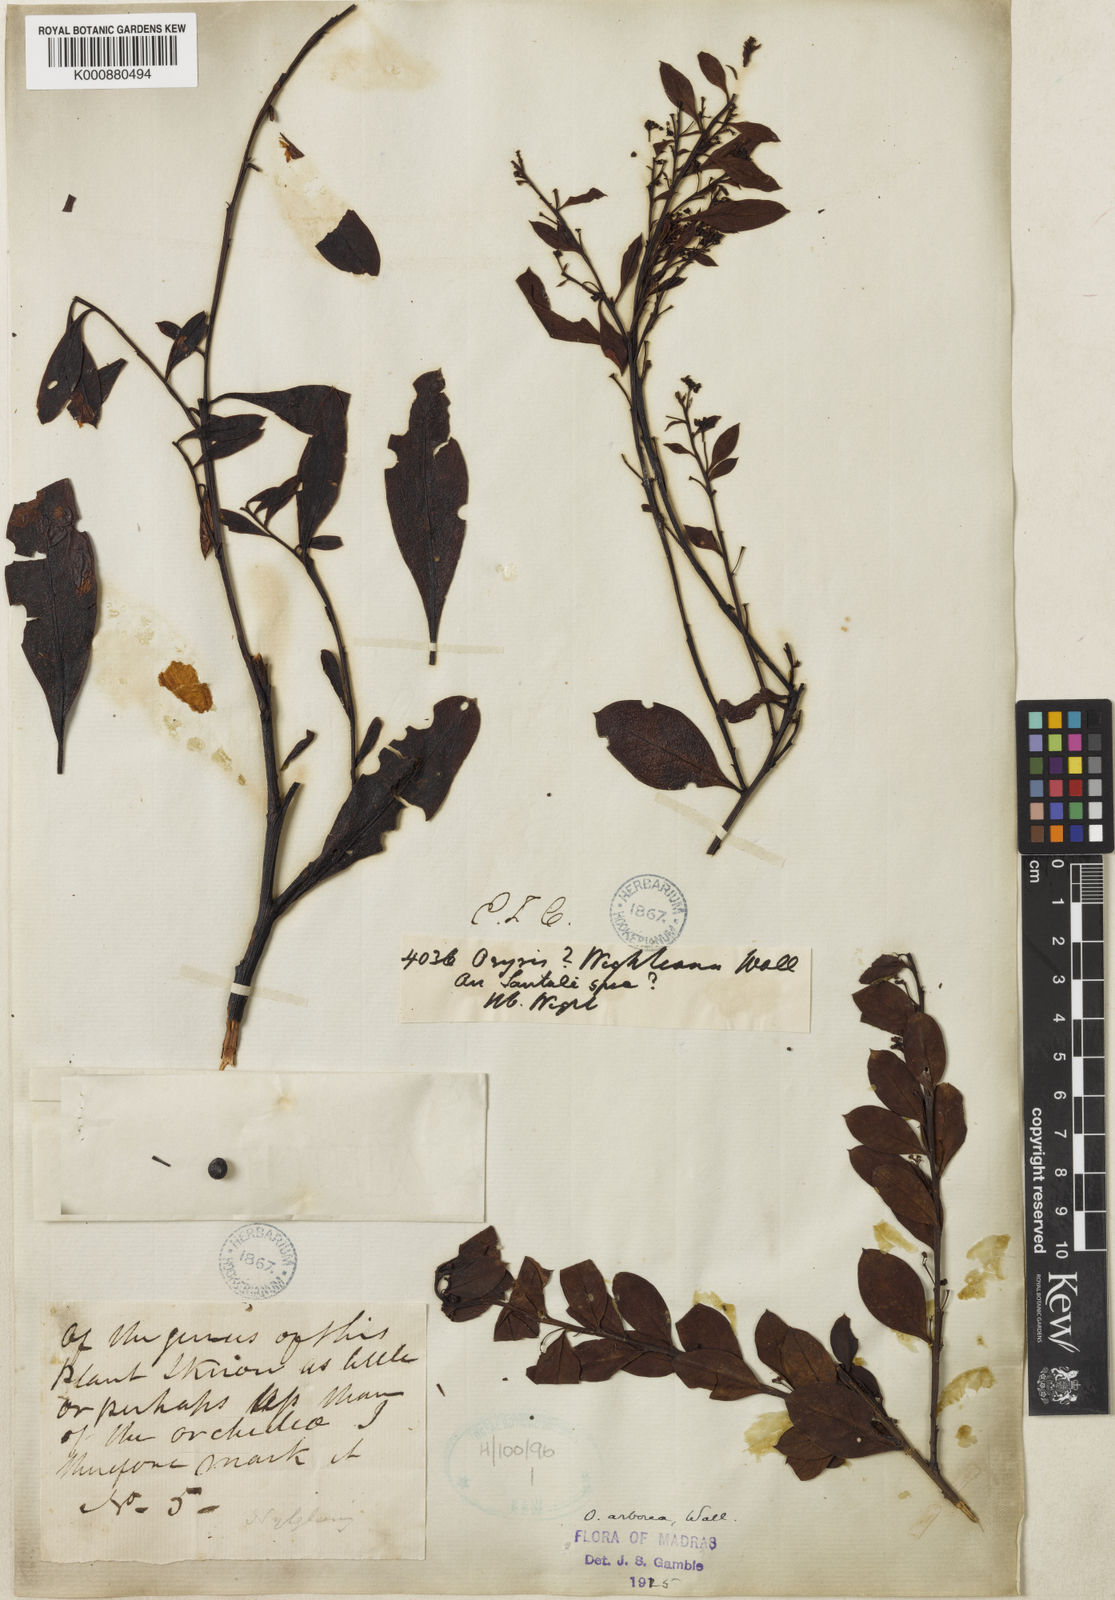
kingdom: Plantae
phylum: Tracheophyta
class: Magnoliopsida
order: Santalales
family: Santalaceae
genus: Osyris
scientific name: Osyris
